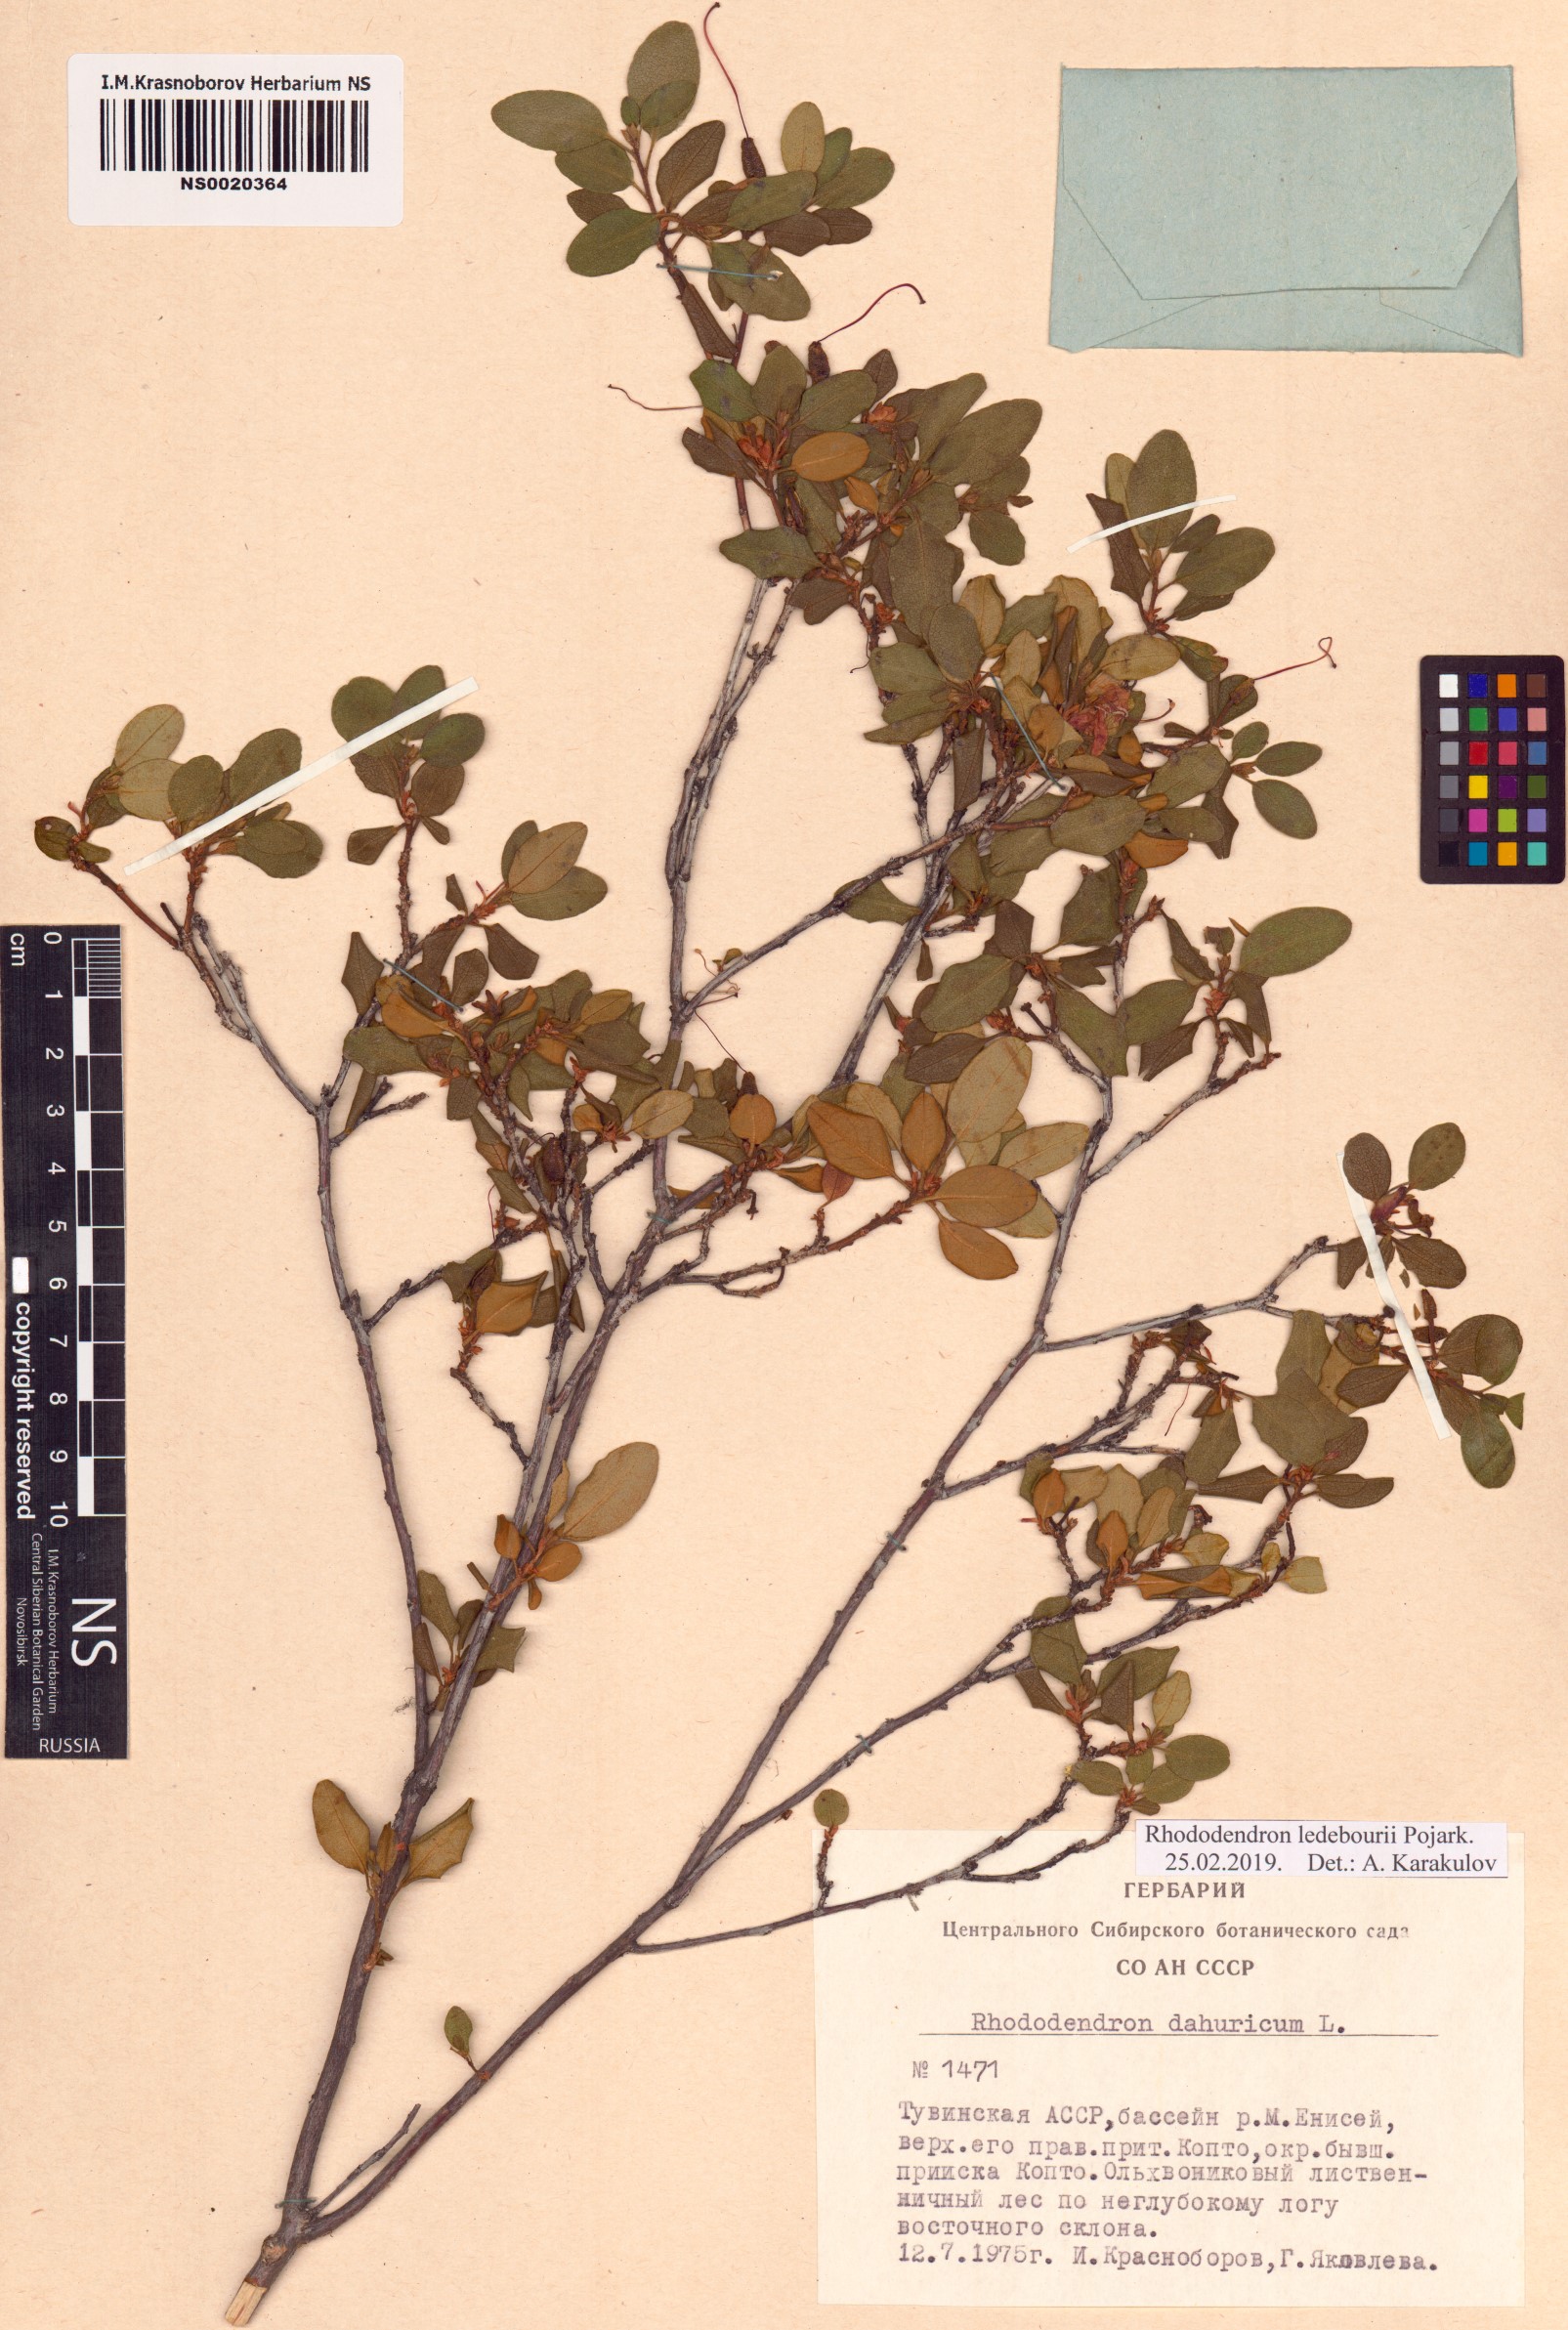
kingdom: Plantae
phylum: Tracheophyta
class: Magnoliopsida
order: Ericales
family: Ericaceae
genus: Rhododendron
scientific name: Rhododendron dauricum
